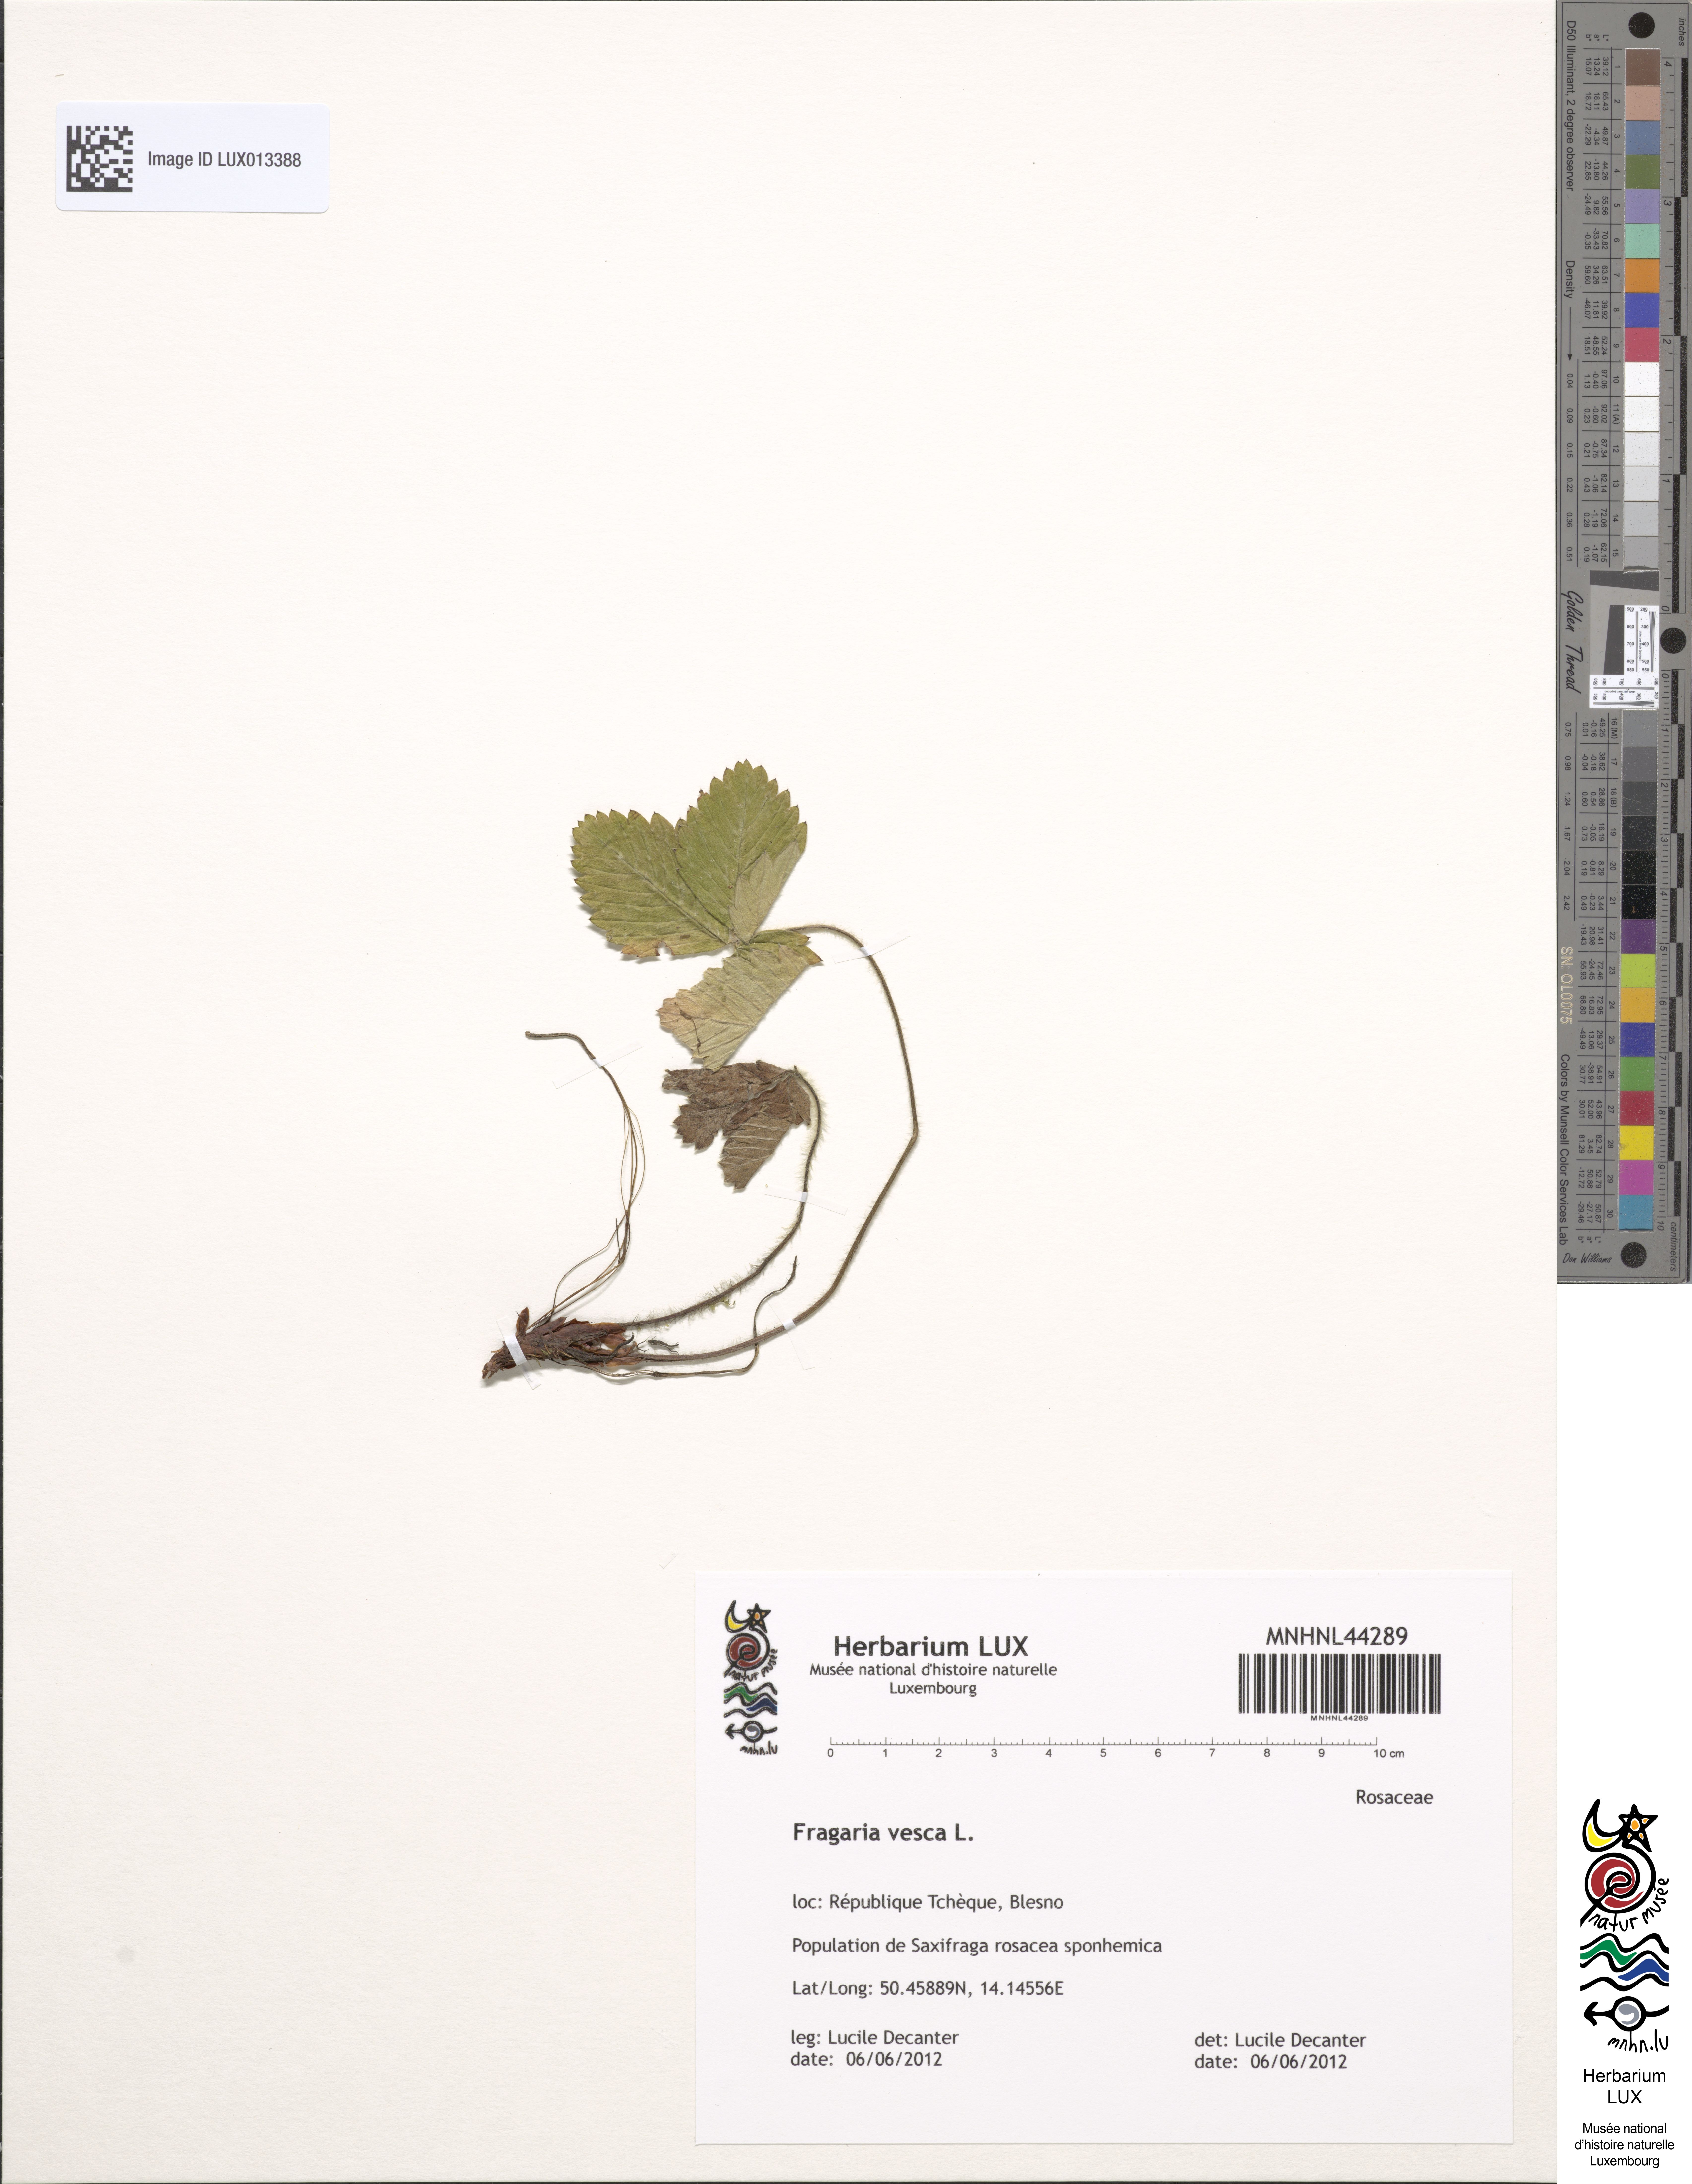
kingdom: Plantae
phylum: Tracheophyta
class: Magnoliopsida
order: Rosales
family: Rosaceae
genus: Fragaria
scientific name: Fragaria vesca
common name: Wild strawberry
